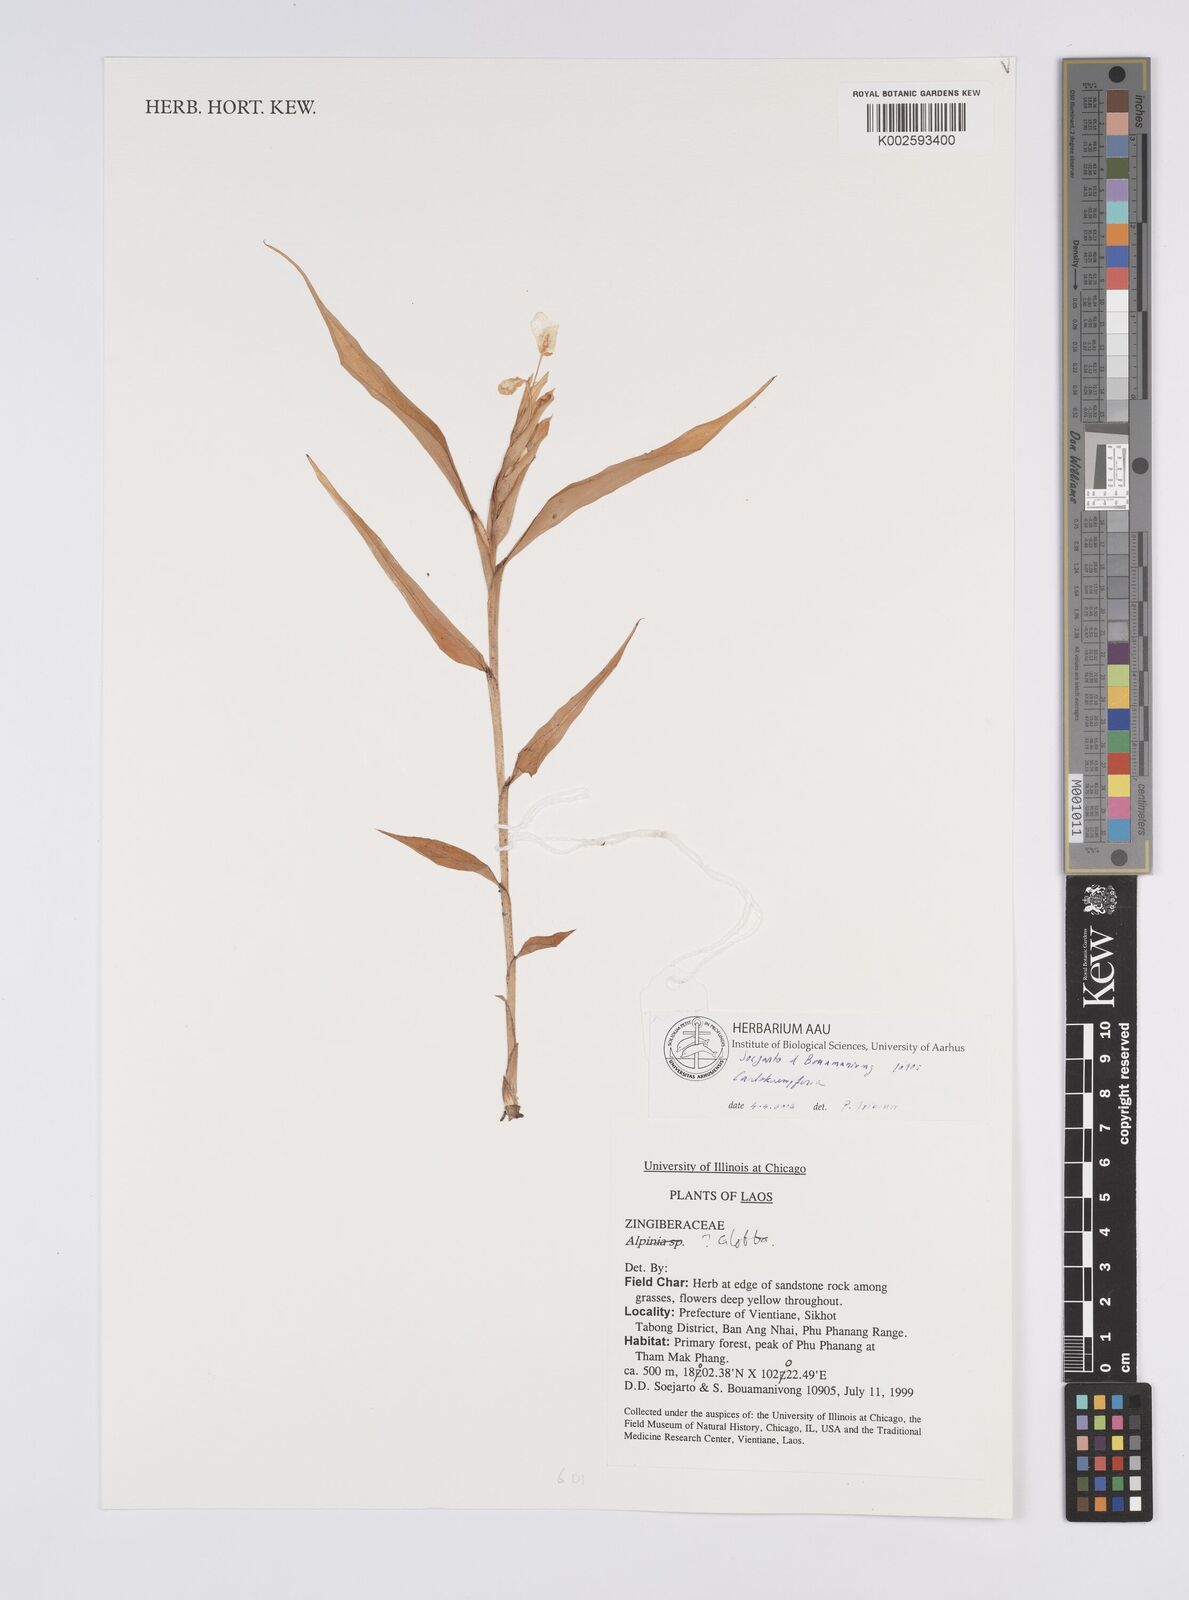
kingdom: Plantae
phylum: Tracheophyta
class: Liliopsida
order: Zingiberales
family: Zingiberaceae
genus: Caulokaempferia
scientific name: Caulokaempferia
